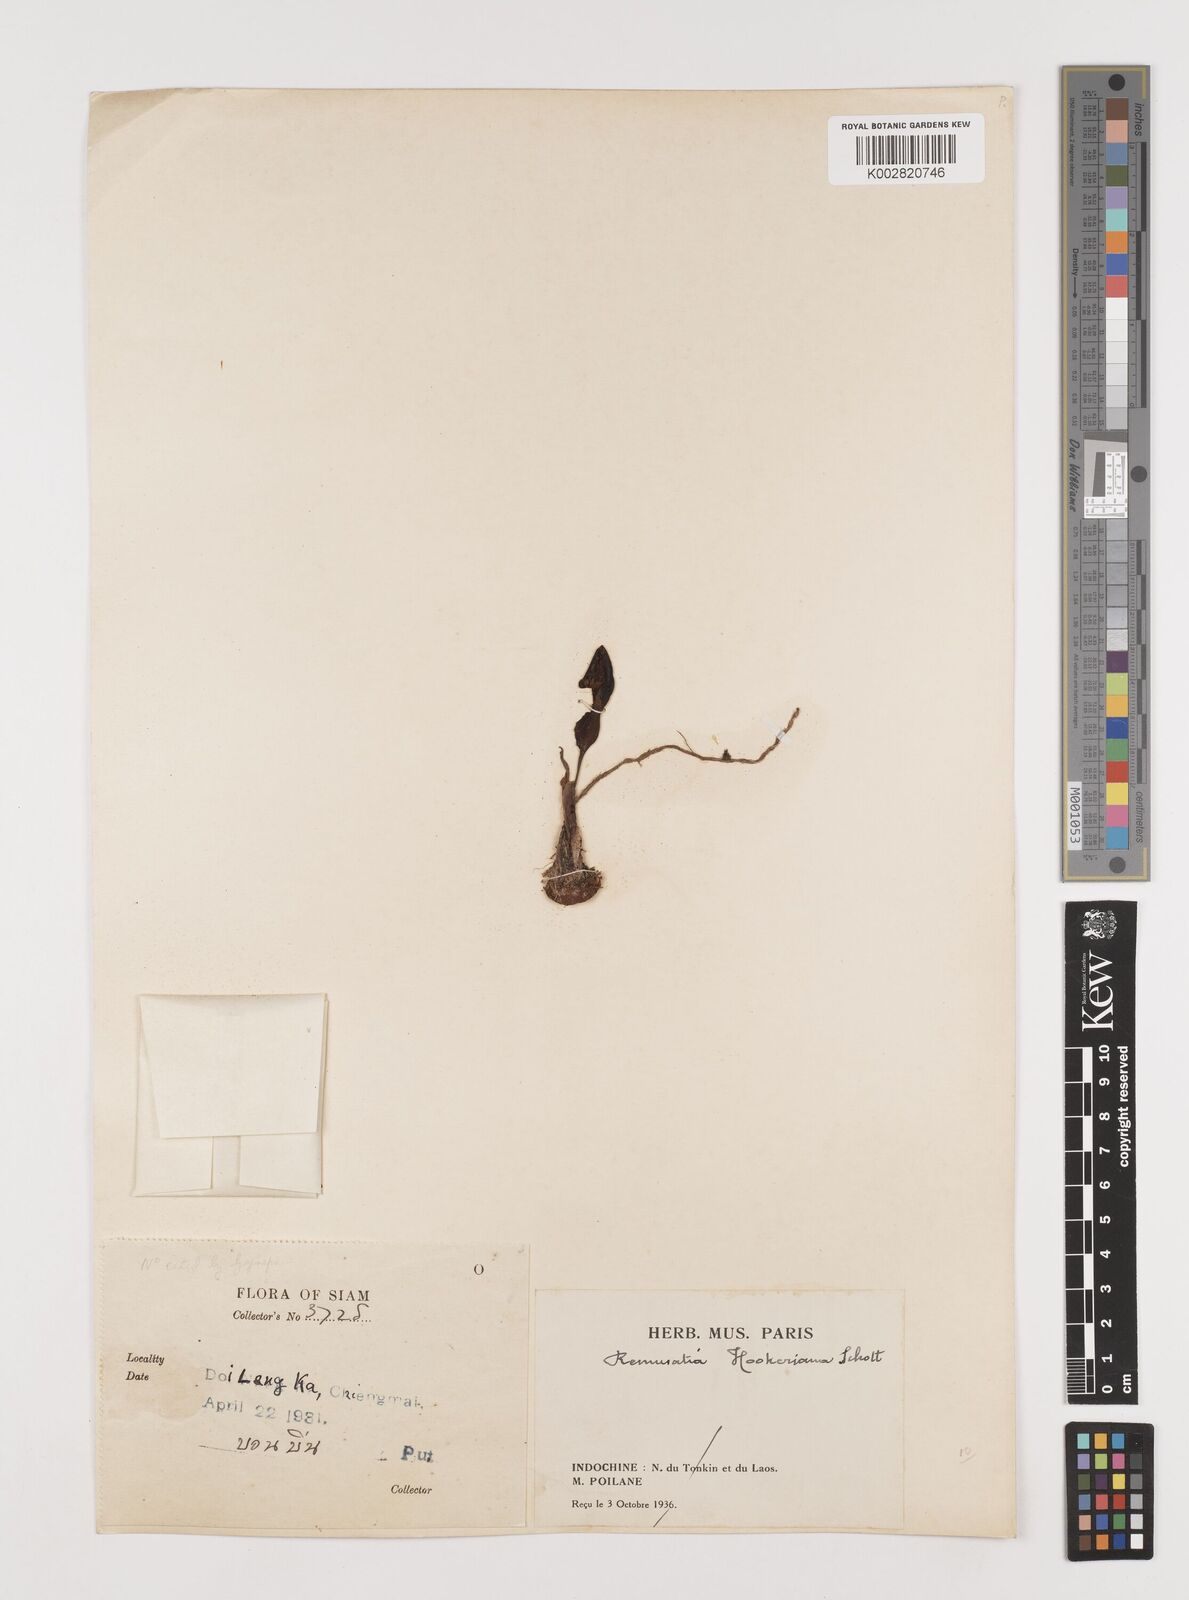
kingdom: Plantae
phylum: Tracheophyta
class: Liliopsida
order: Alismatales
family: Araceae
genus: Remusatia
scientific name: Remusatia hookeriana
